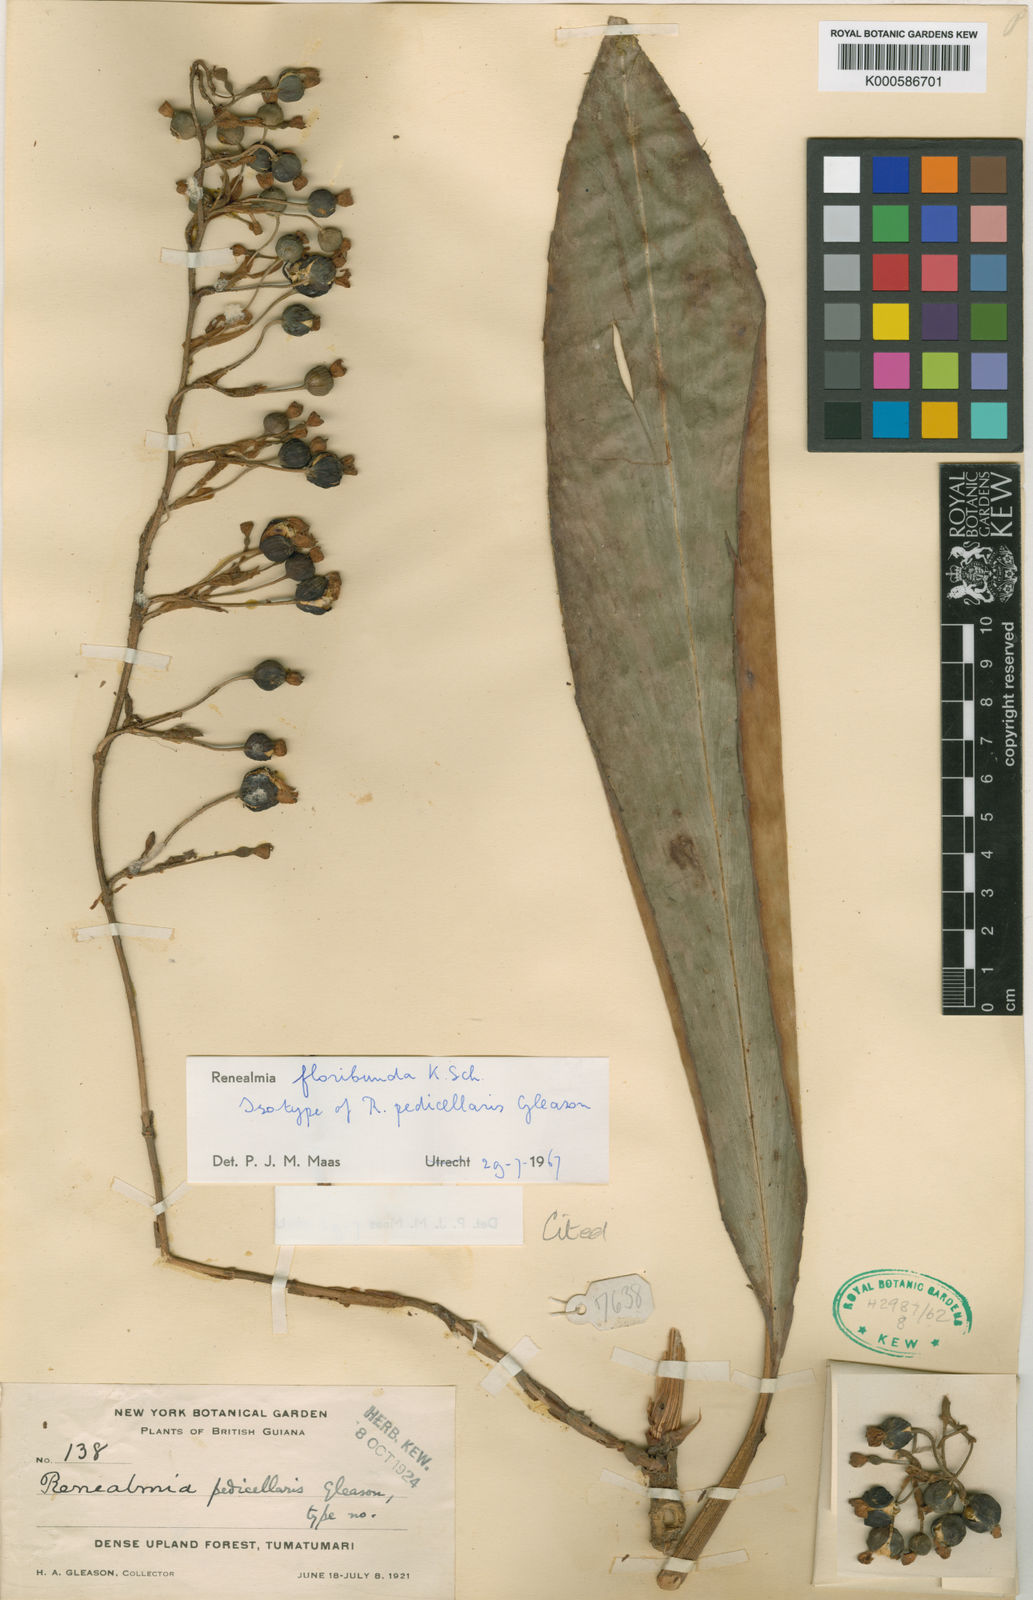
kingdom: Plantae
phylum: Tracheophyta
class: Liliopsida
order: Zingiberales
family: Zingiberaceae
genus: Renealmia
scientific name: Renealmia floribunda
